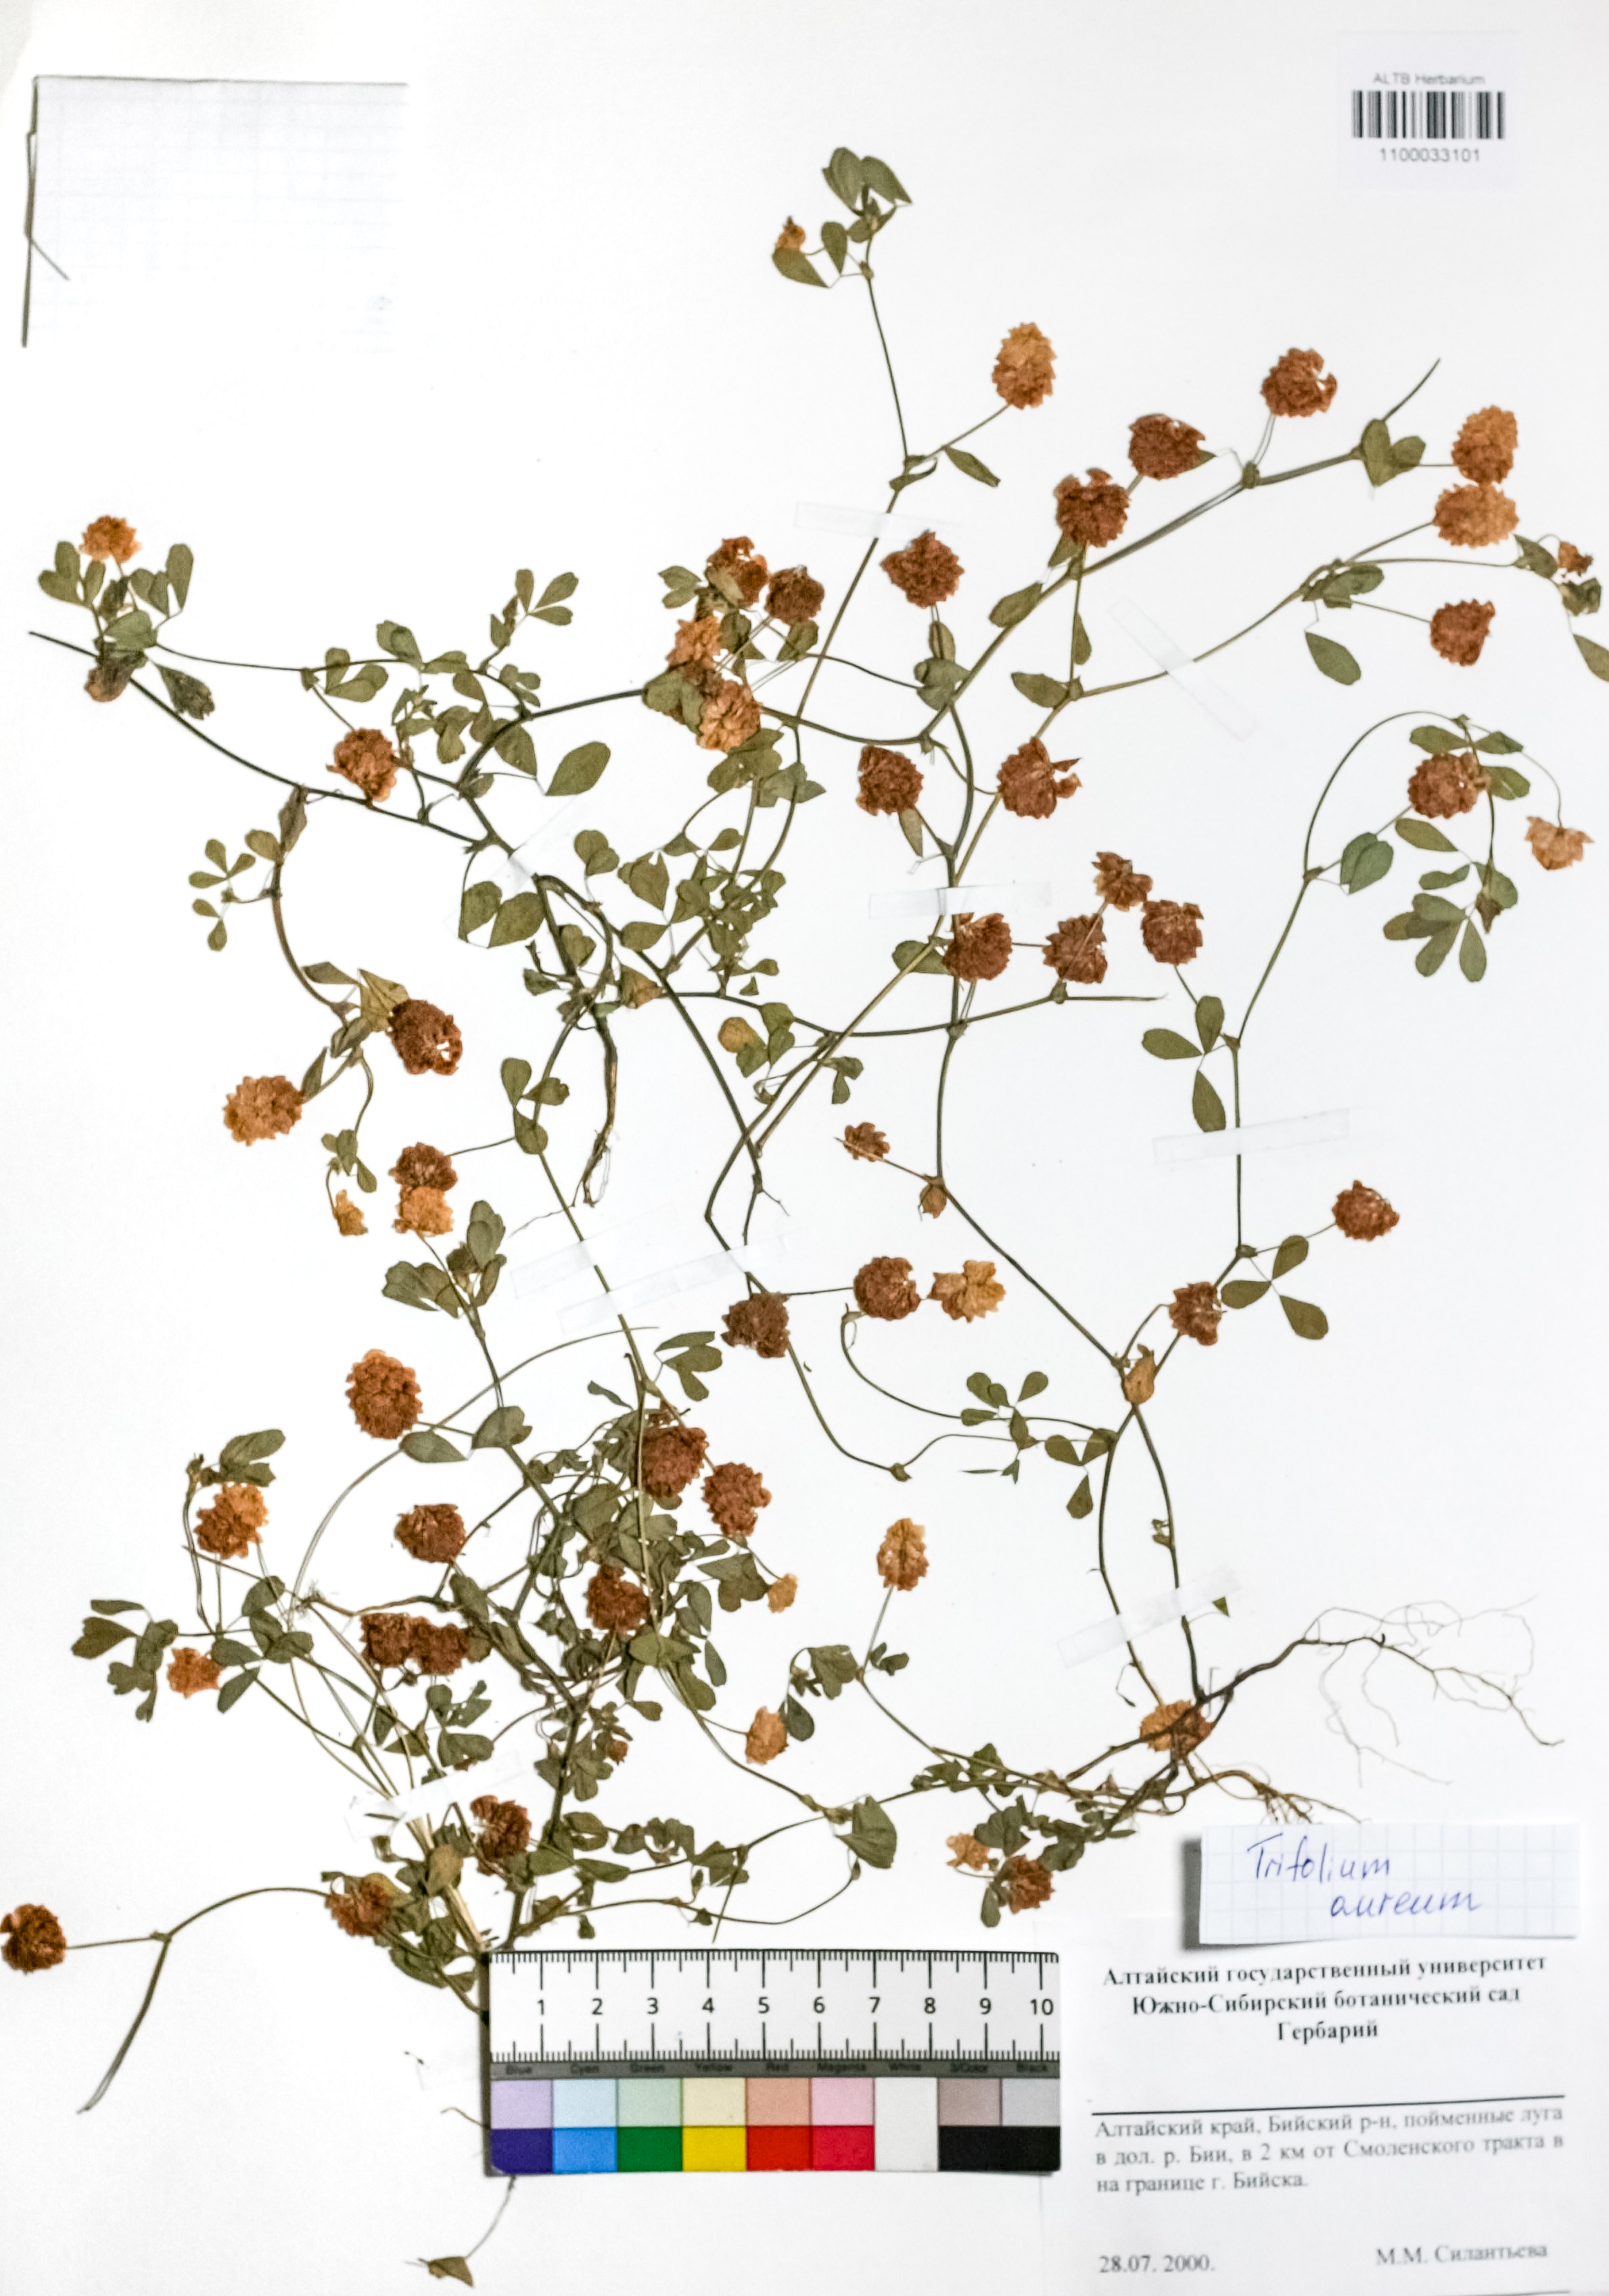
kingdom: Plantae
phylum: Tracheophyta
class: Magnoliopsida
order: Fabales
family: Fabaceae
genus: Trifolium
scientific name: Trifolium aureum
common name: Golden clover
